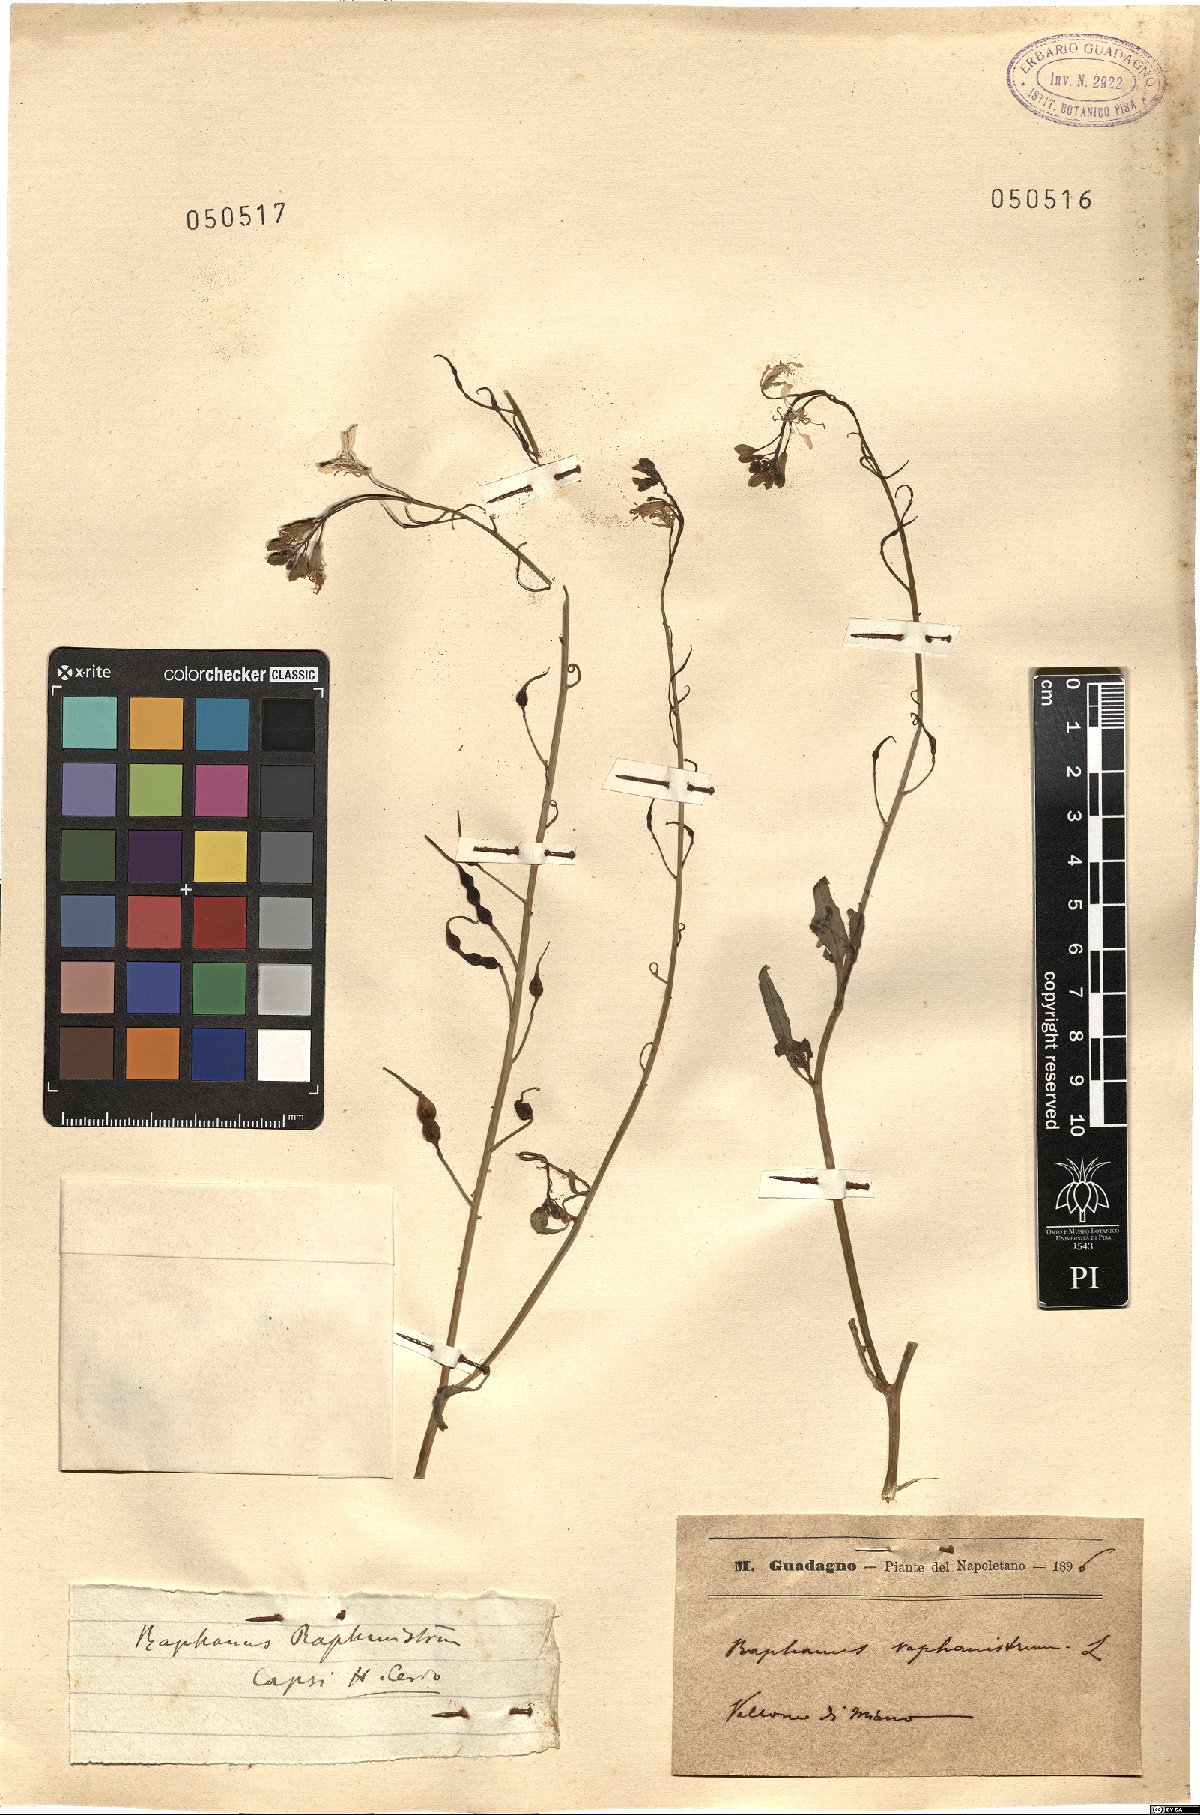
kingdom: Plantae
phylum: Tracheophyta
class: Magnoliopsida
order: Brassicales
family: Brassicaceae
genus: Raphanus
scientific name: Raphanus raphanistrum
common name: Wild radish
